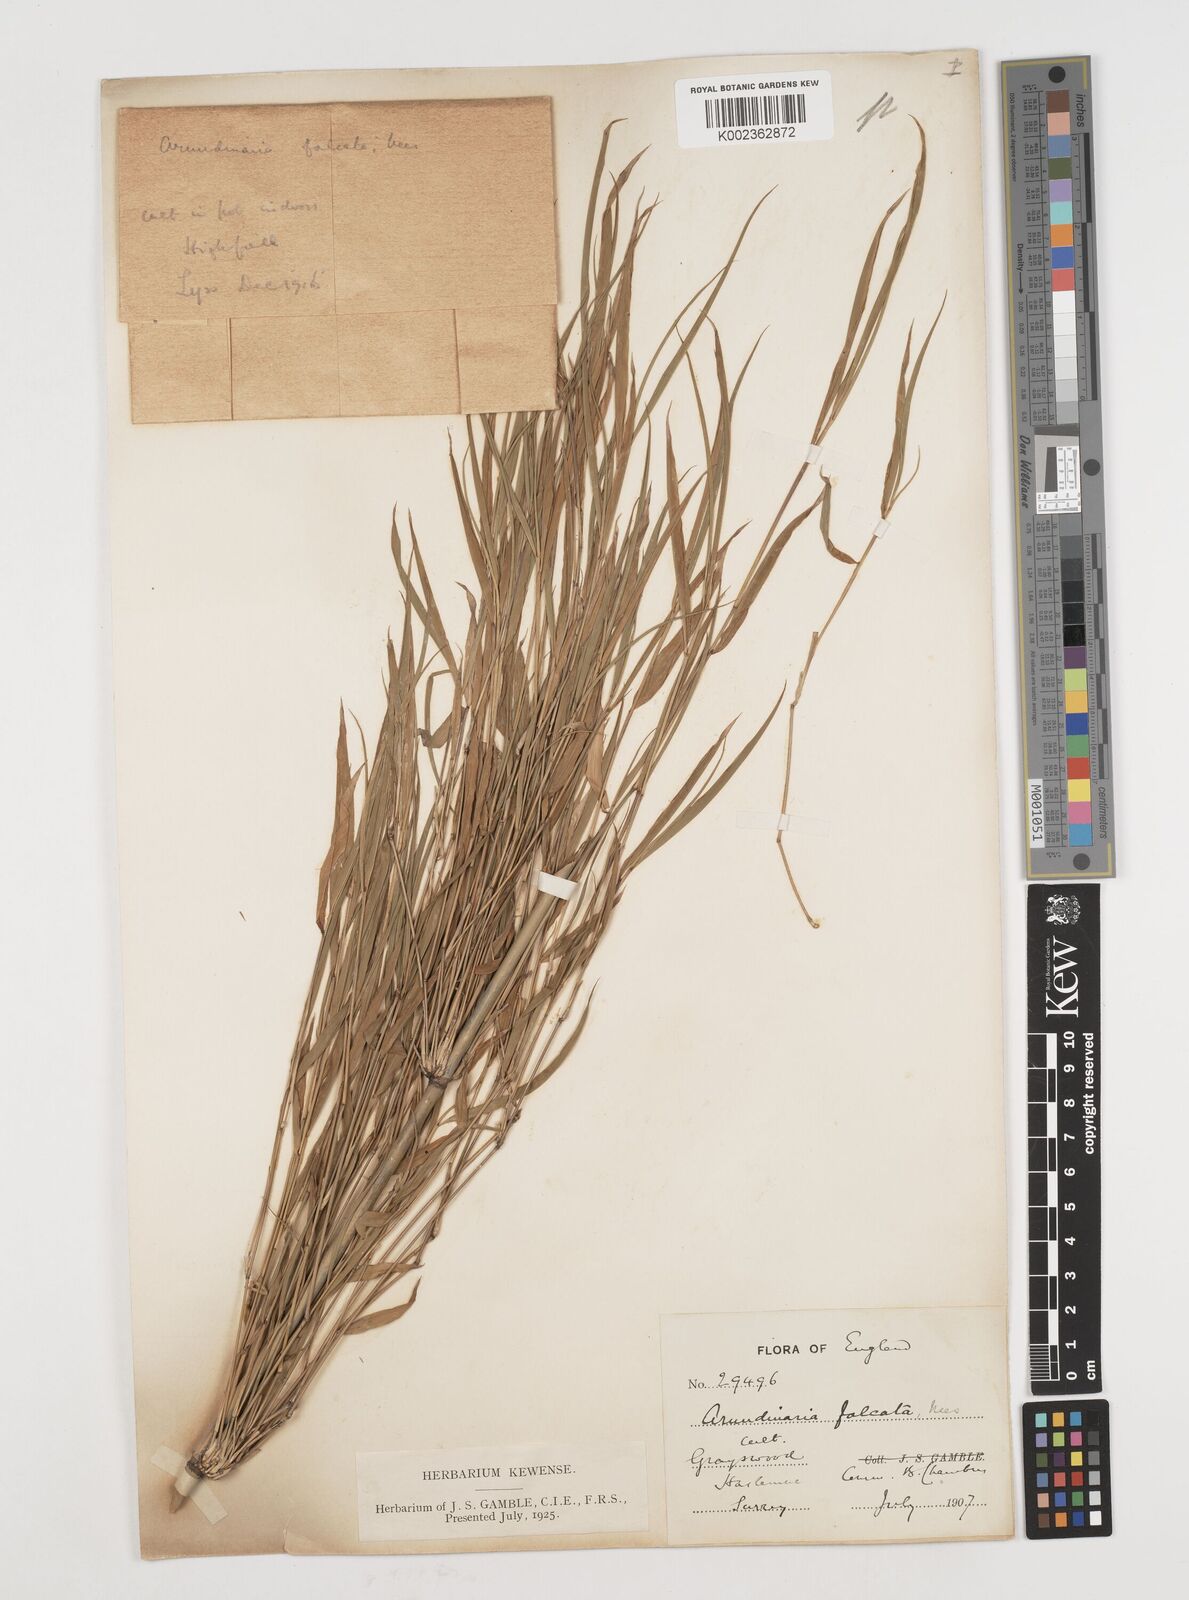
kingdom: Plantae
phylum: Tracheophyta
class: Liliopsida
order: Poales
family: Poaceae
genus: Drepanostachyum
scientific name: Drepanostachyum falcatum
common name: Himalayan bamboo
